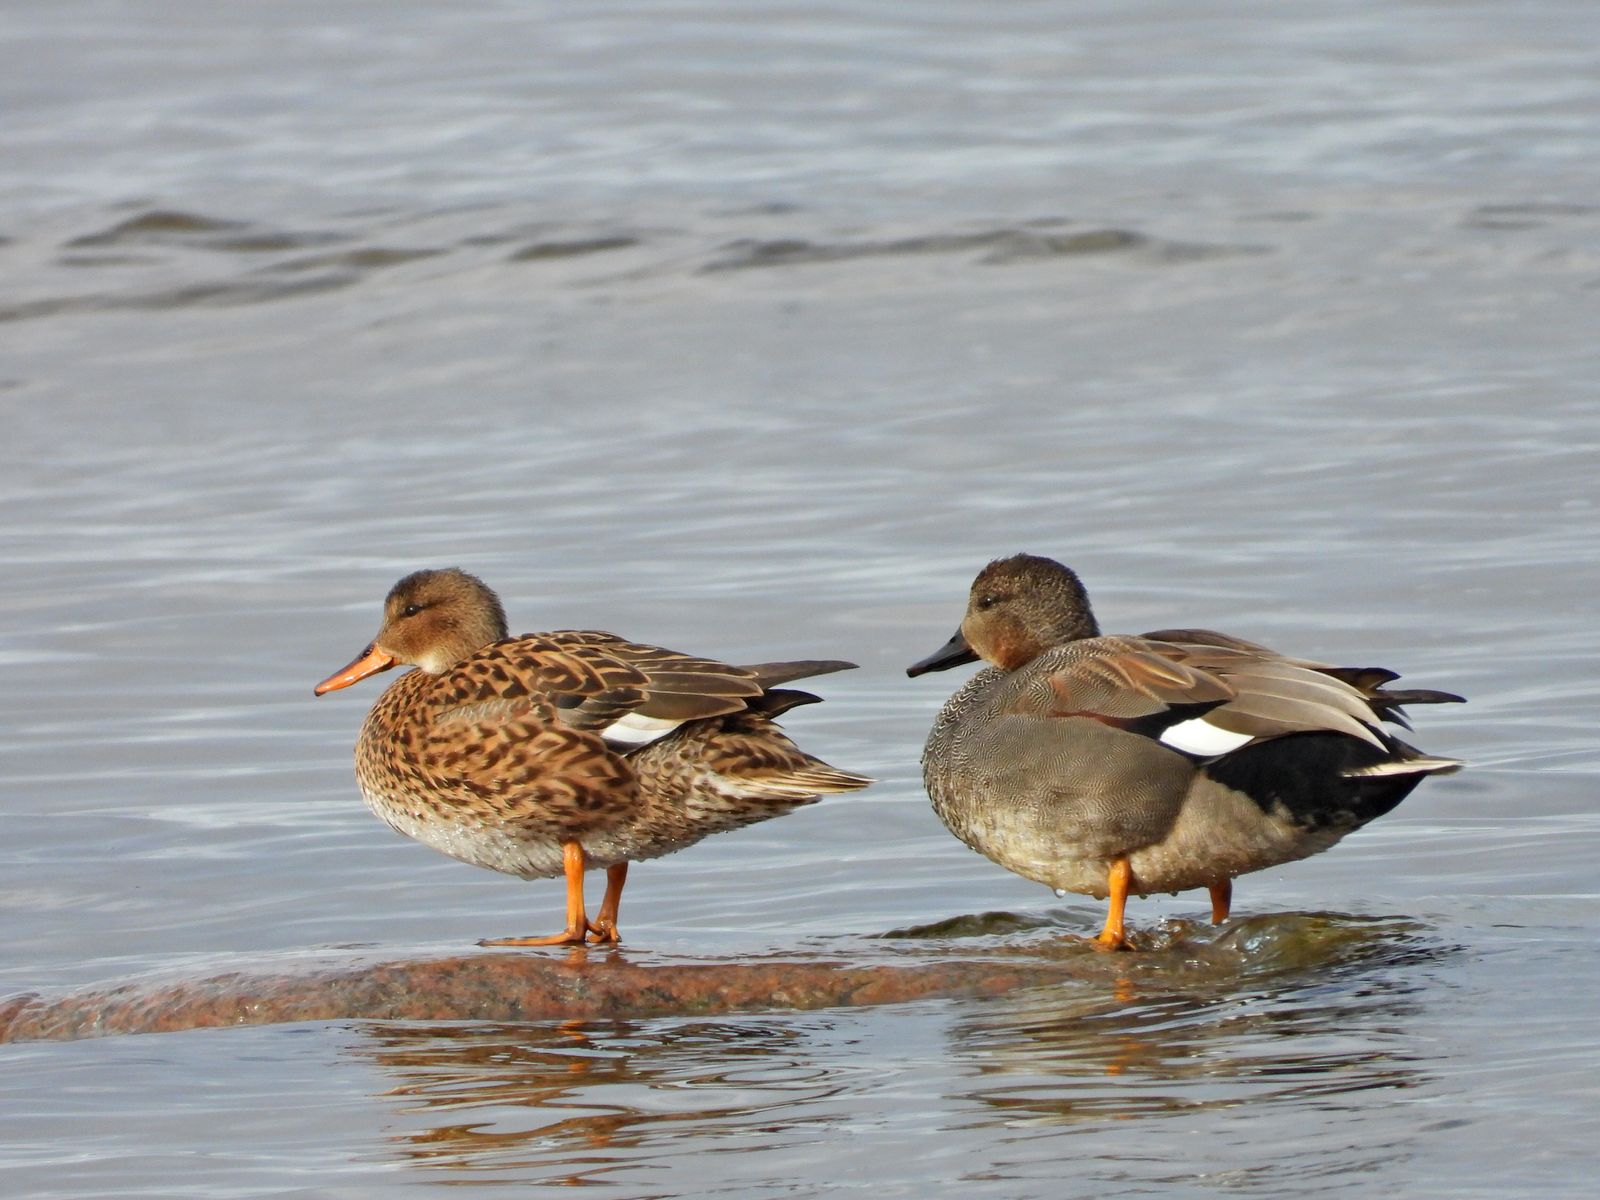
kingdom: Animalia
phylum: Chordata
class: Aves
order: Anseriformes
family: Anatidae
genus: Mareca
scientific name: Mareca strepera
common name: Gadwall
